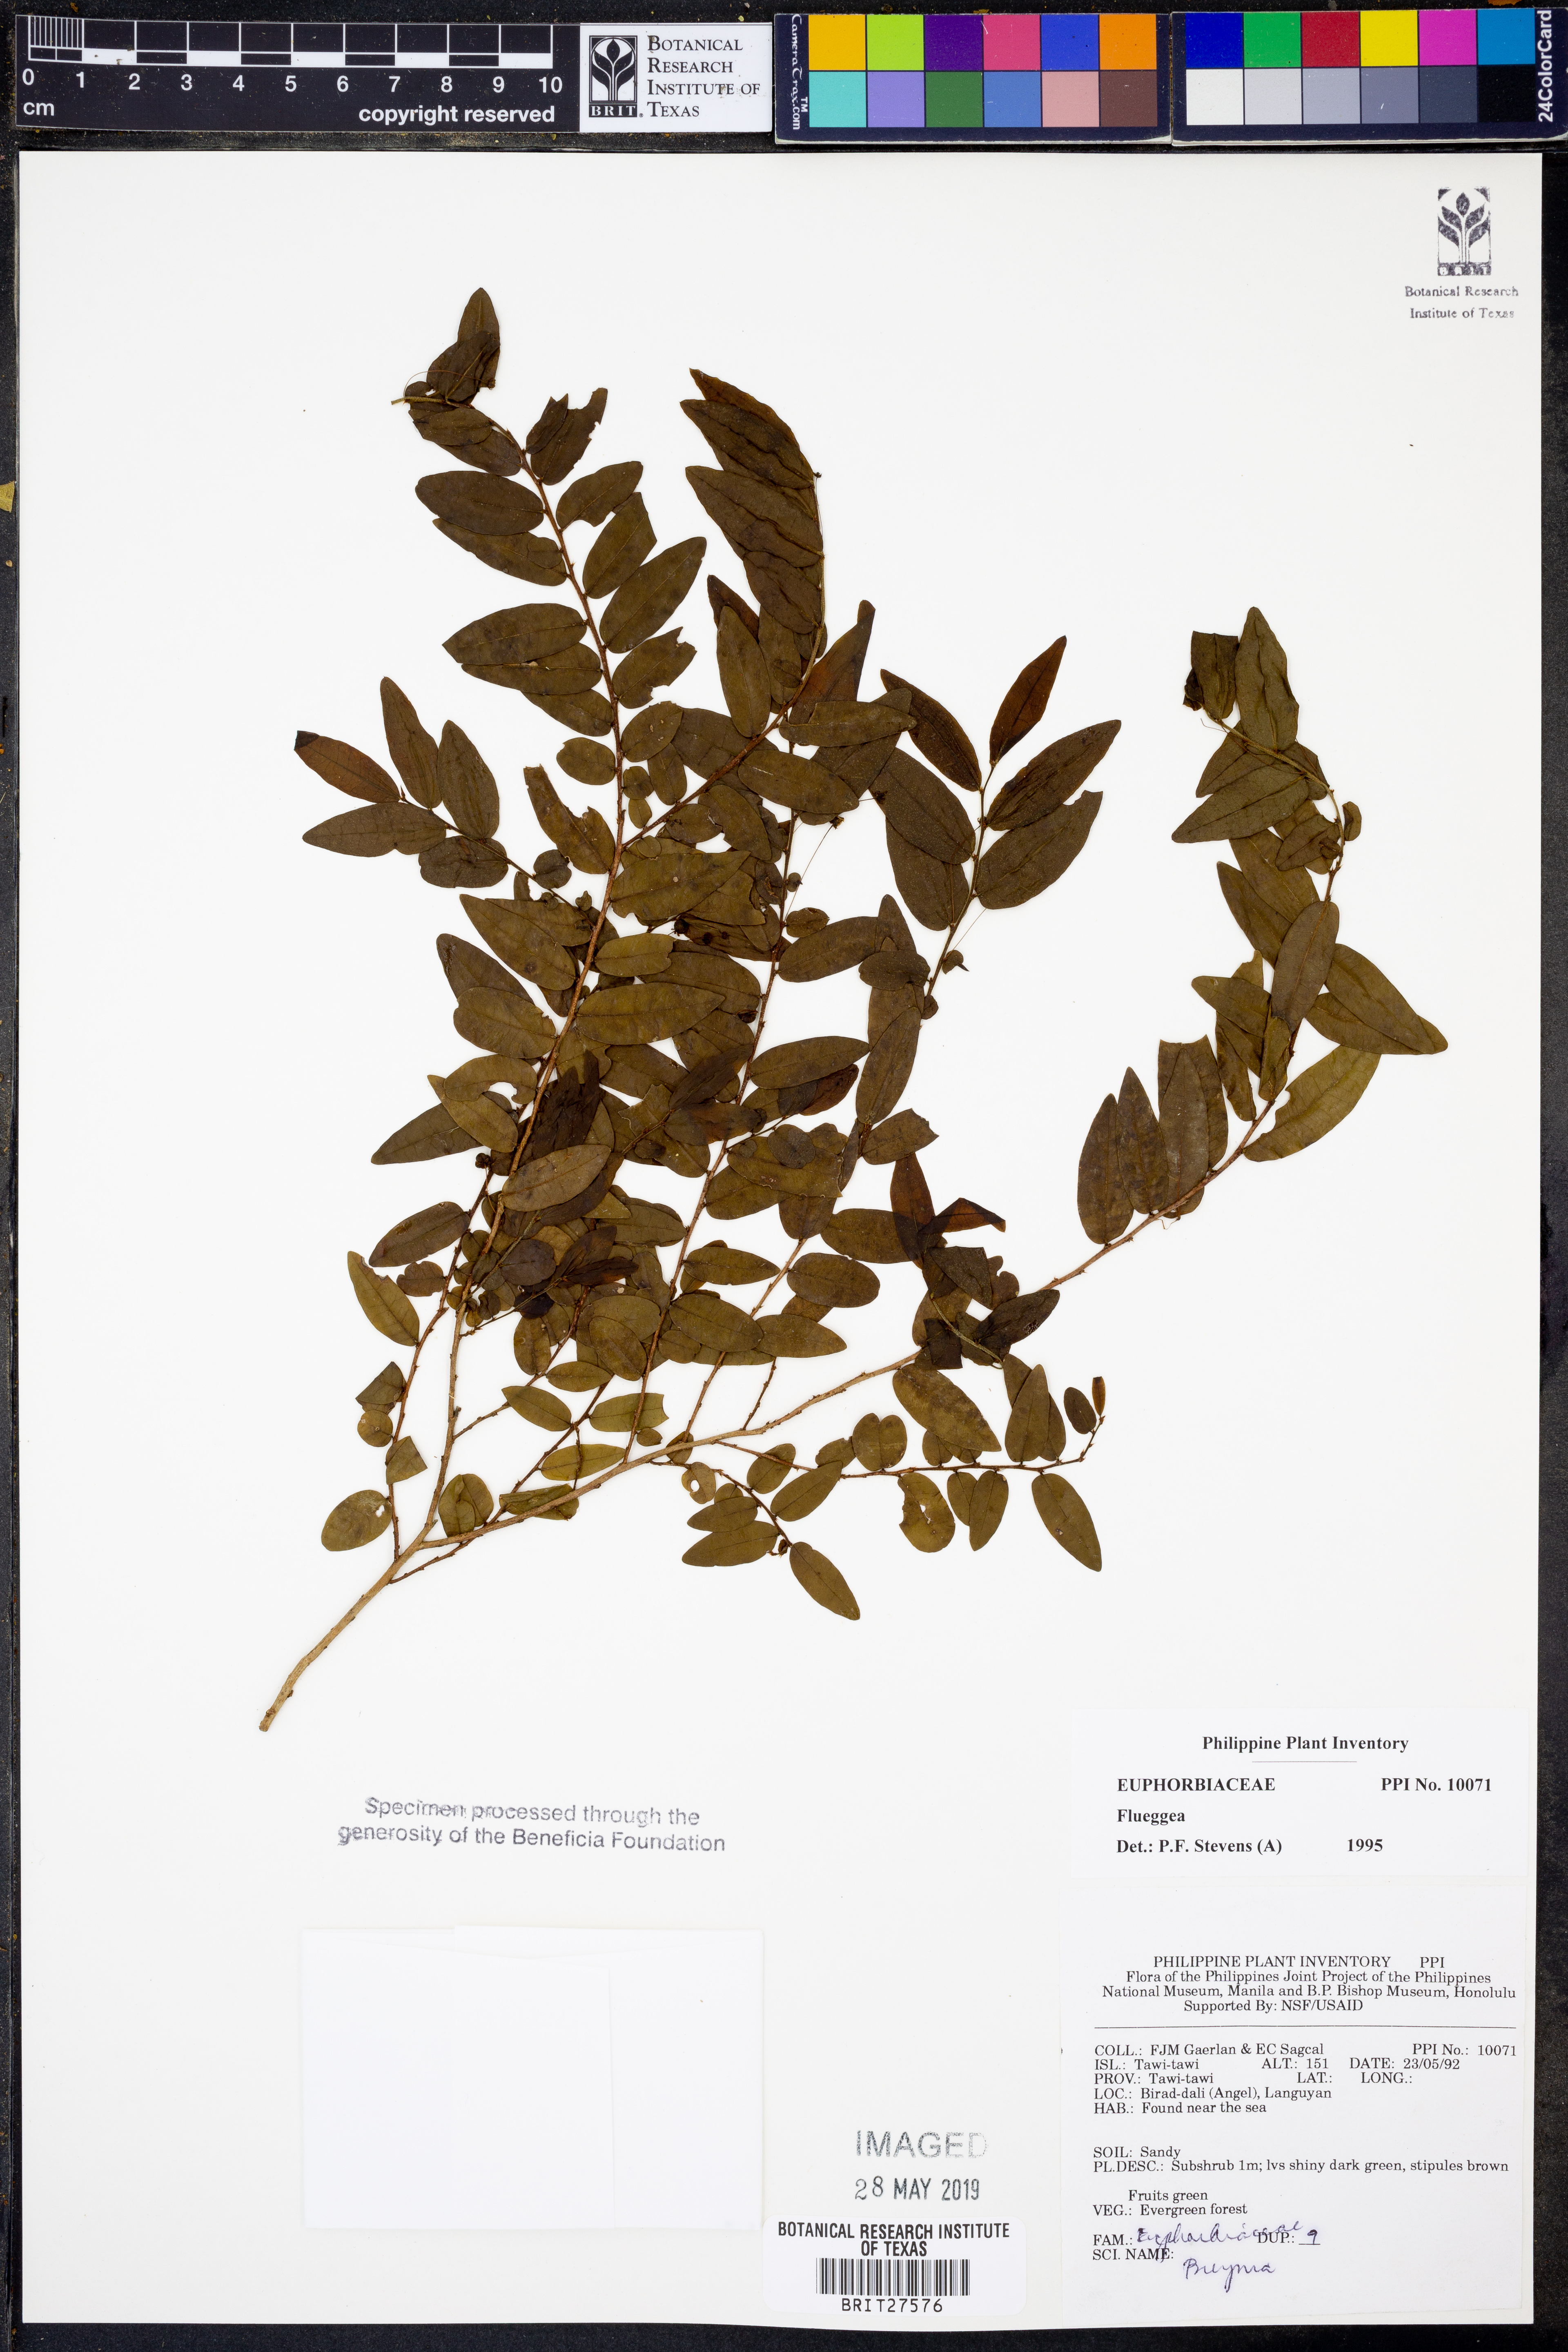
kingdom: Plantae
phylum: Tracheophyta
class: Magnoliopsida
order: Malpighiales
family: Phyllanthaceae
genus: Flueggea
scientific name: Flueggea
